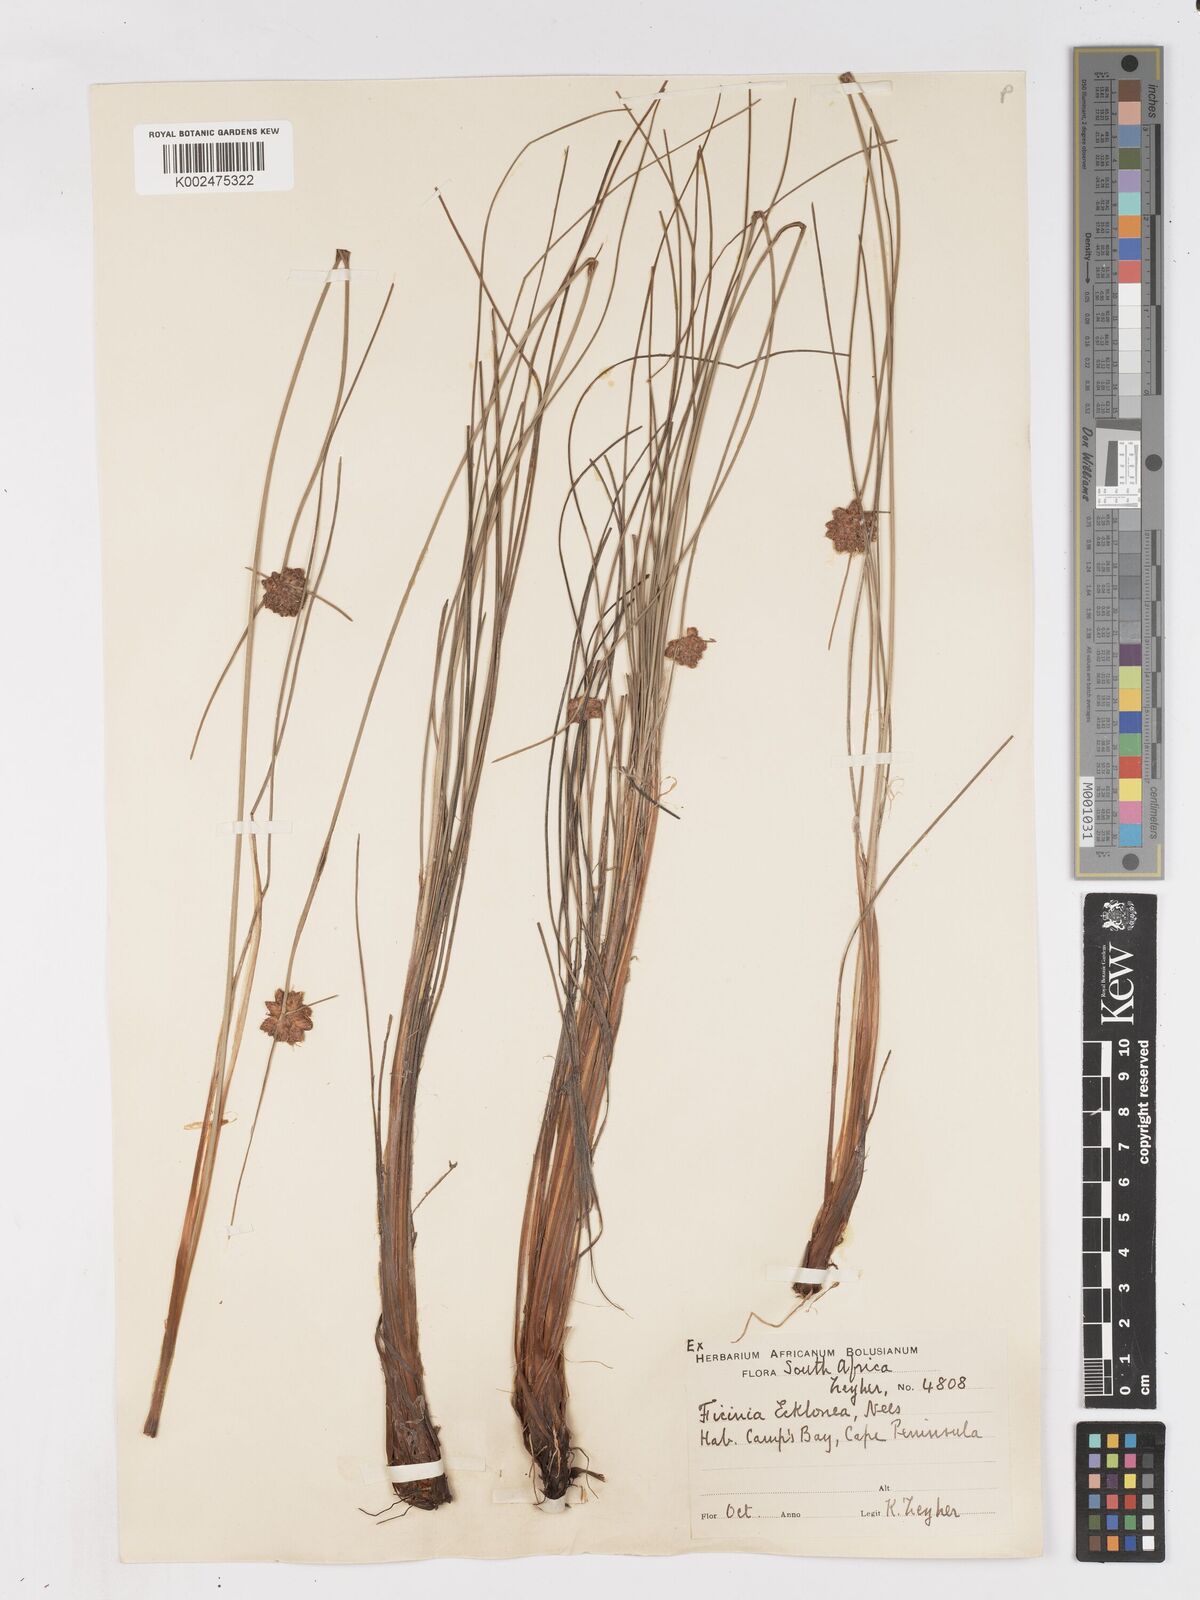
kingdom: Plantae
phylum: Tracheophyta
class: Liliopsida
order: Poales
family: Cyperaceae
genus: Ficinia
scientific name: Ficinia ecklonea
